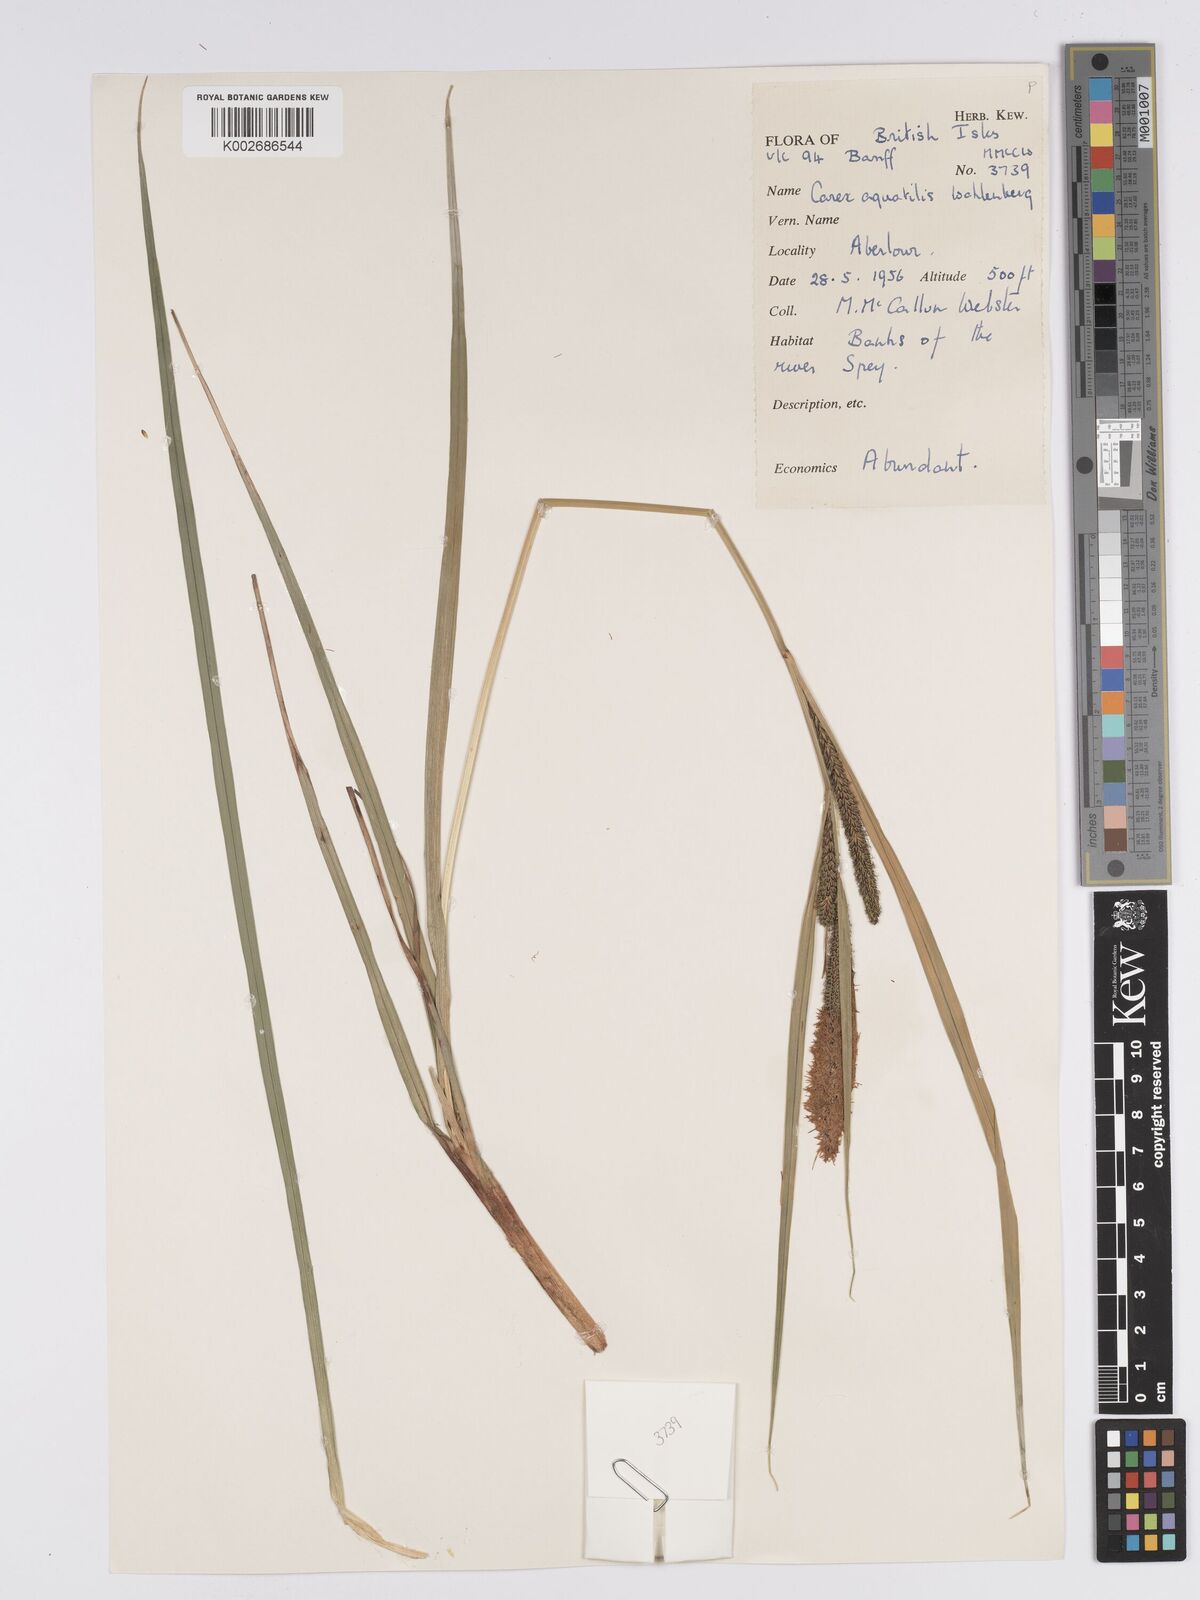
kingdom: Plantae
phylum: Tracheophyta
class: Liliopsida
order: Poales
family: Cyperaceae
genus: Carex
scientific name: Carex aquatilis
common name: Water sedge
